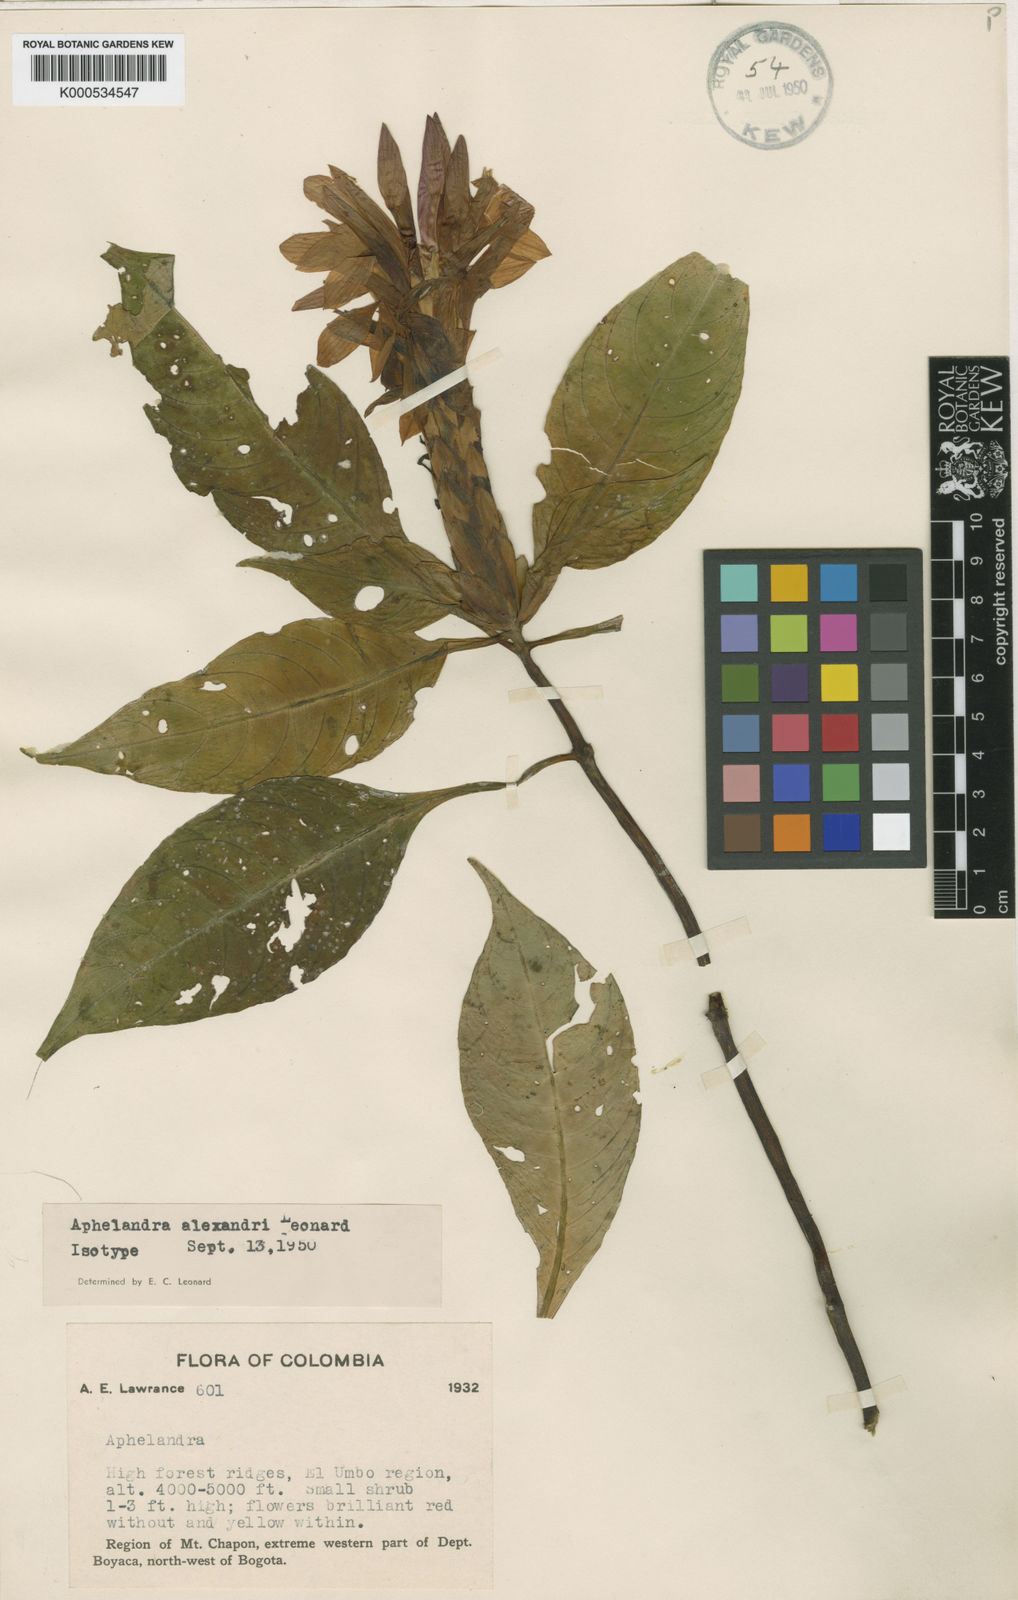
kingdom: Plantae
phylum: Tracheophyta
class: Magnoliopsida
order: Lamiales
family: Acanthaceae
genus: Aphelandra
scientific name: Aphelandra alexandri
